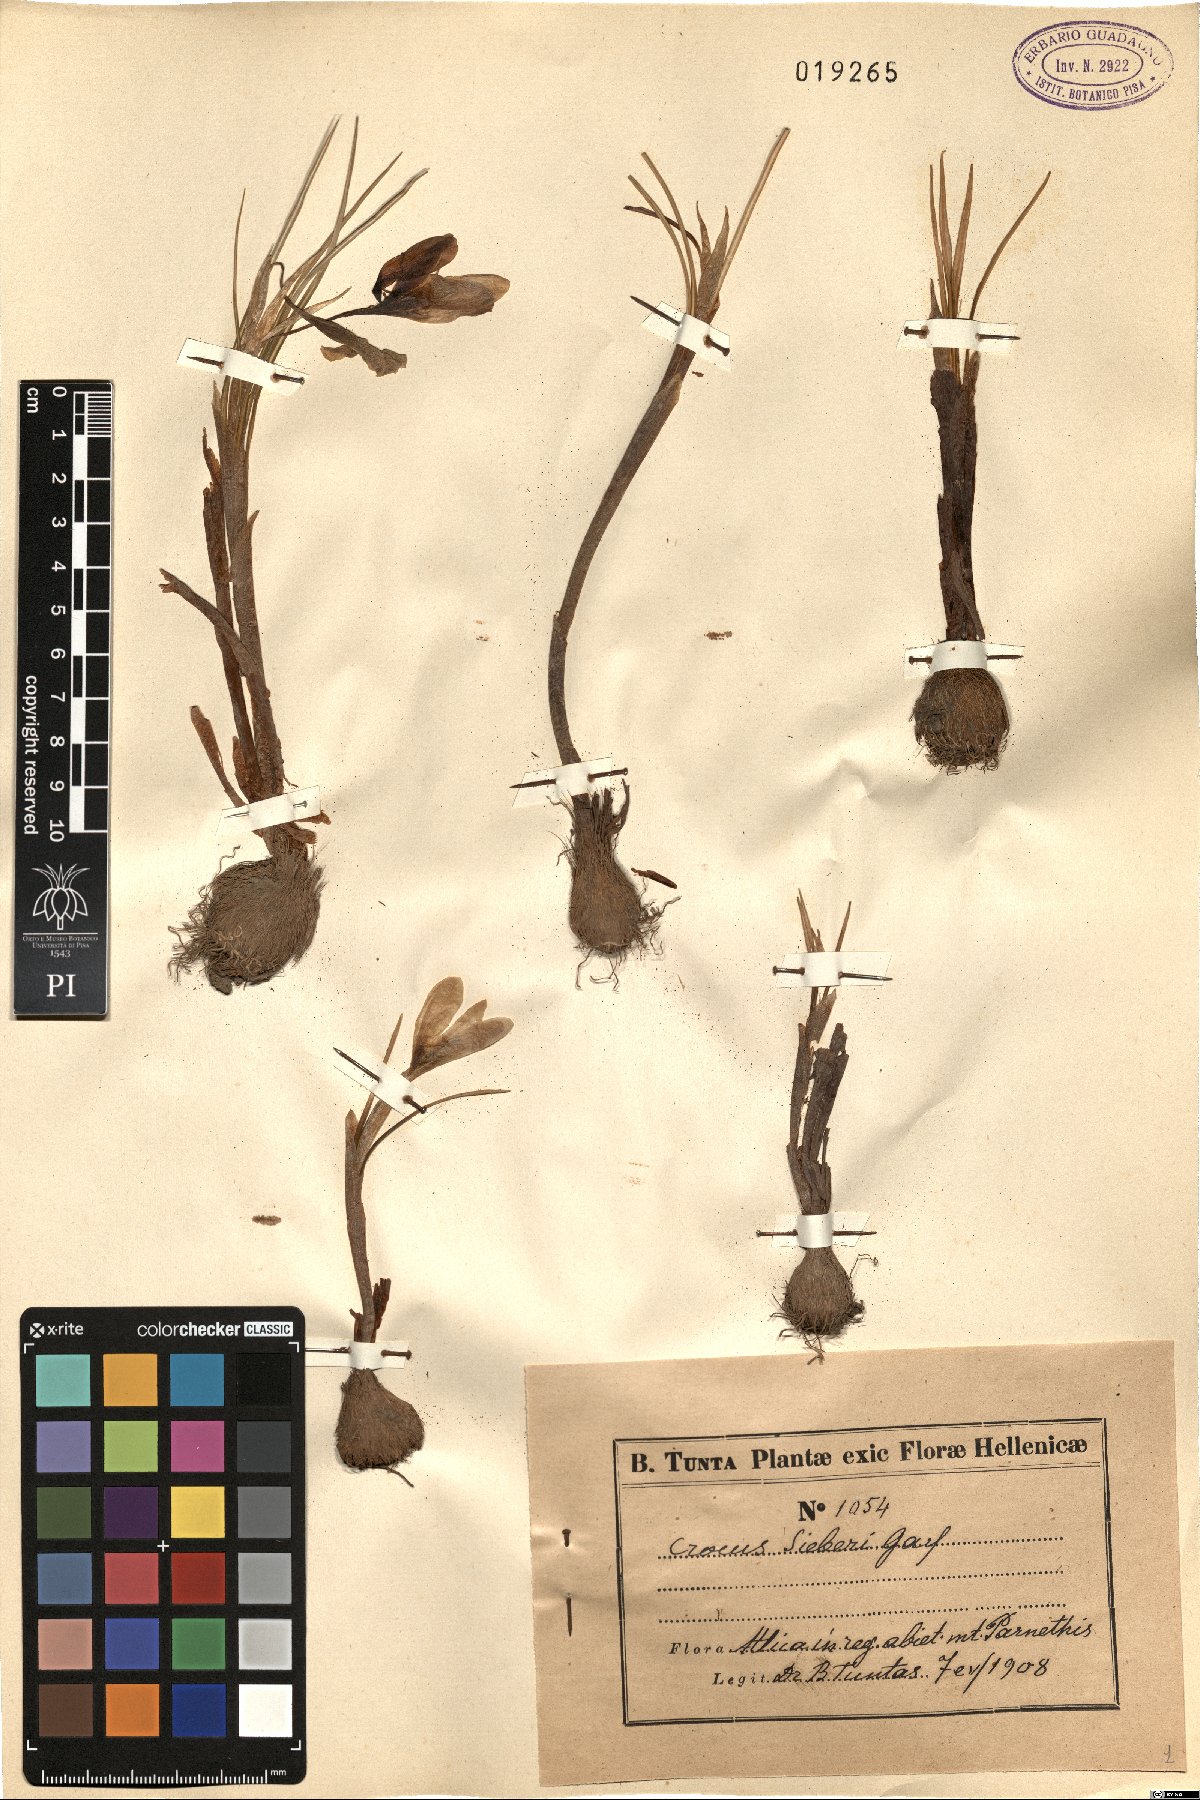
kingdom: Plantae
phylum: Tracheophyta
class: Liliopsida
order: Asparagales
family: Iridaceae
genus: Crocus
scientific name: Crocus sieberi
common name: Sieber's crocus
